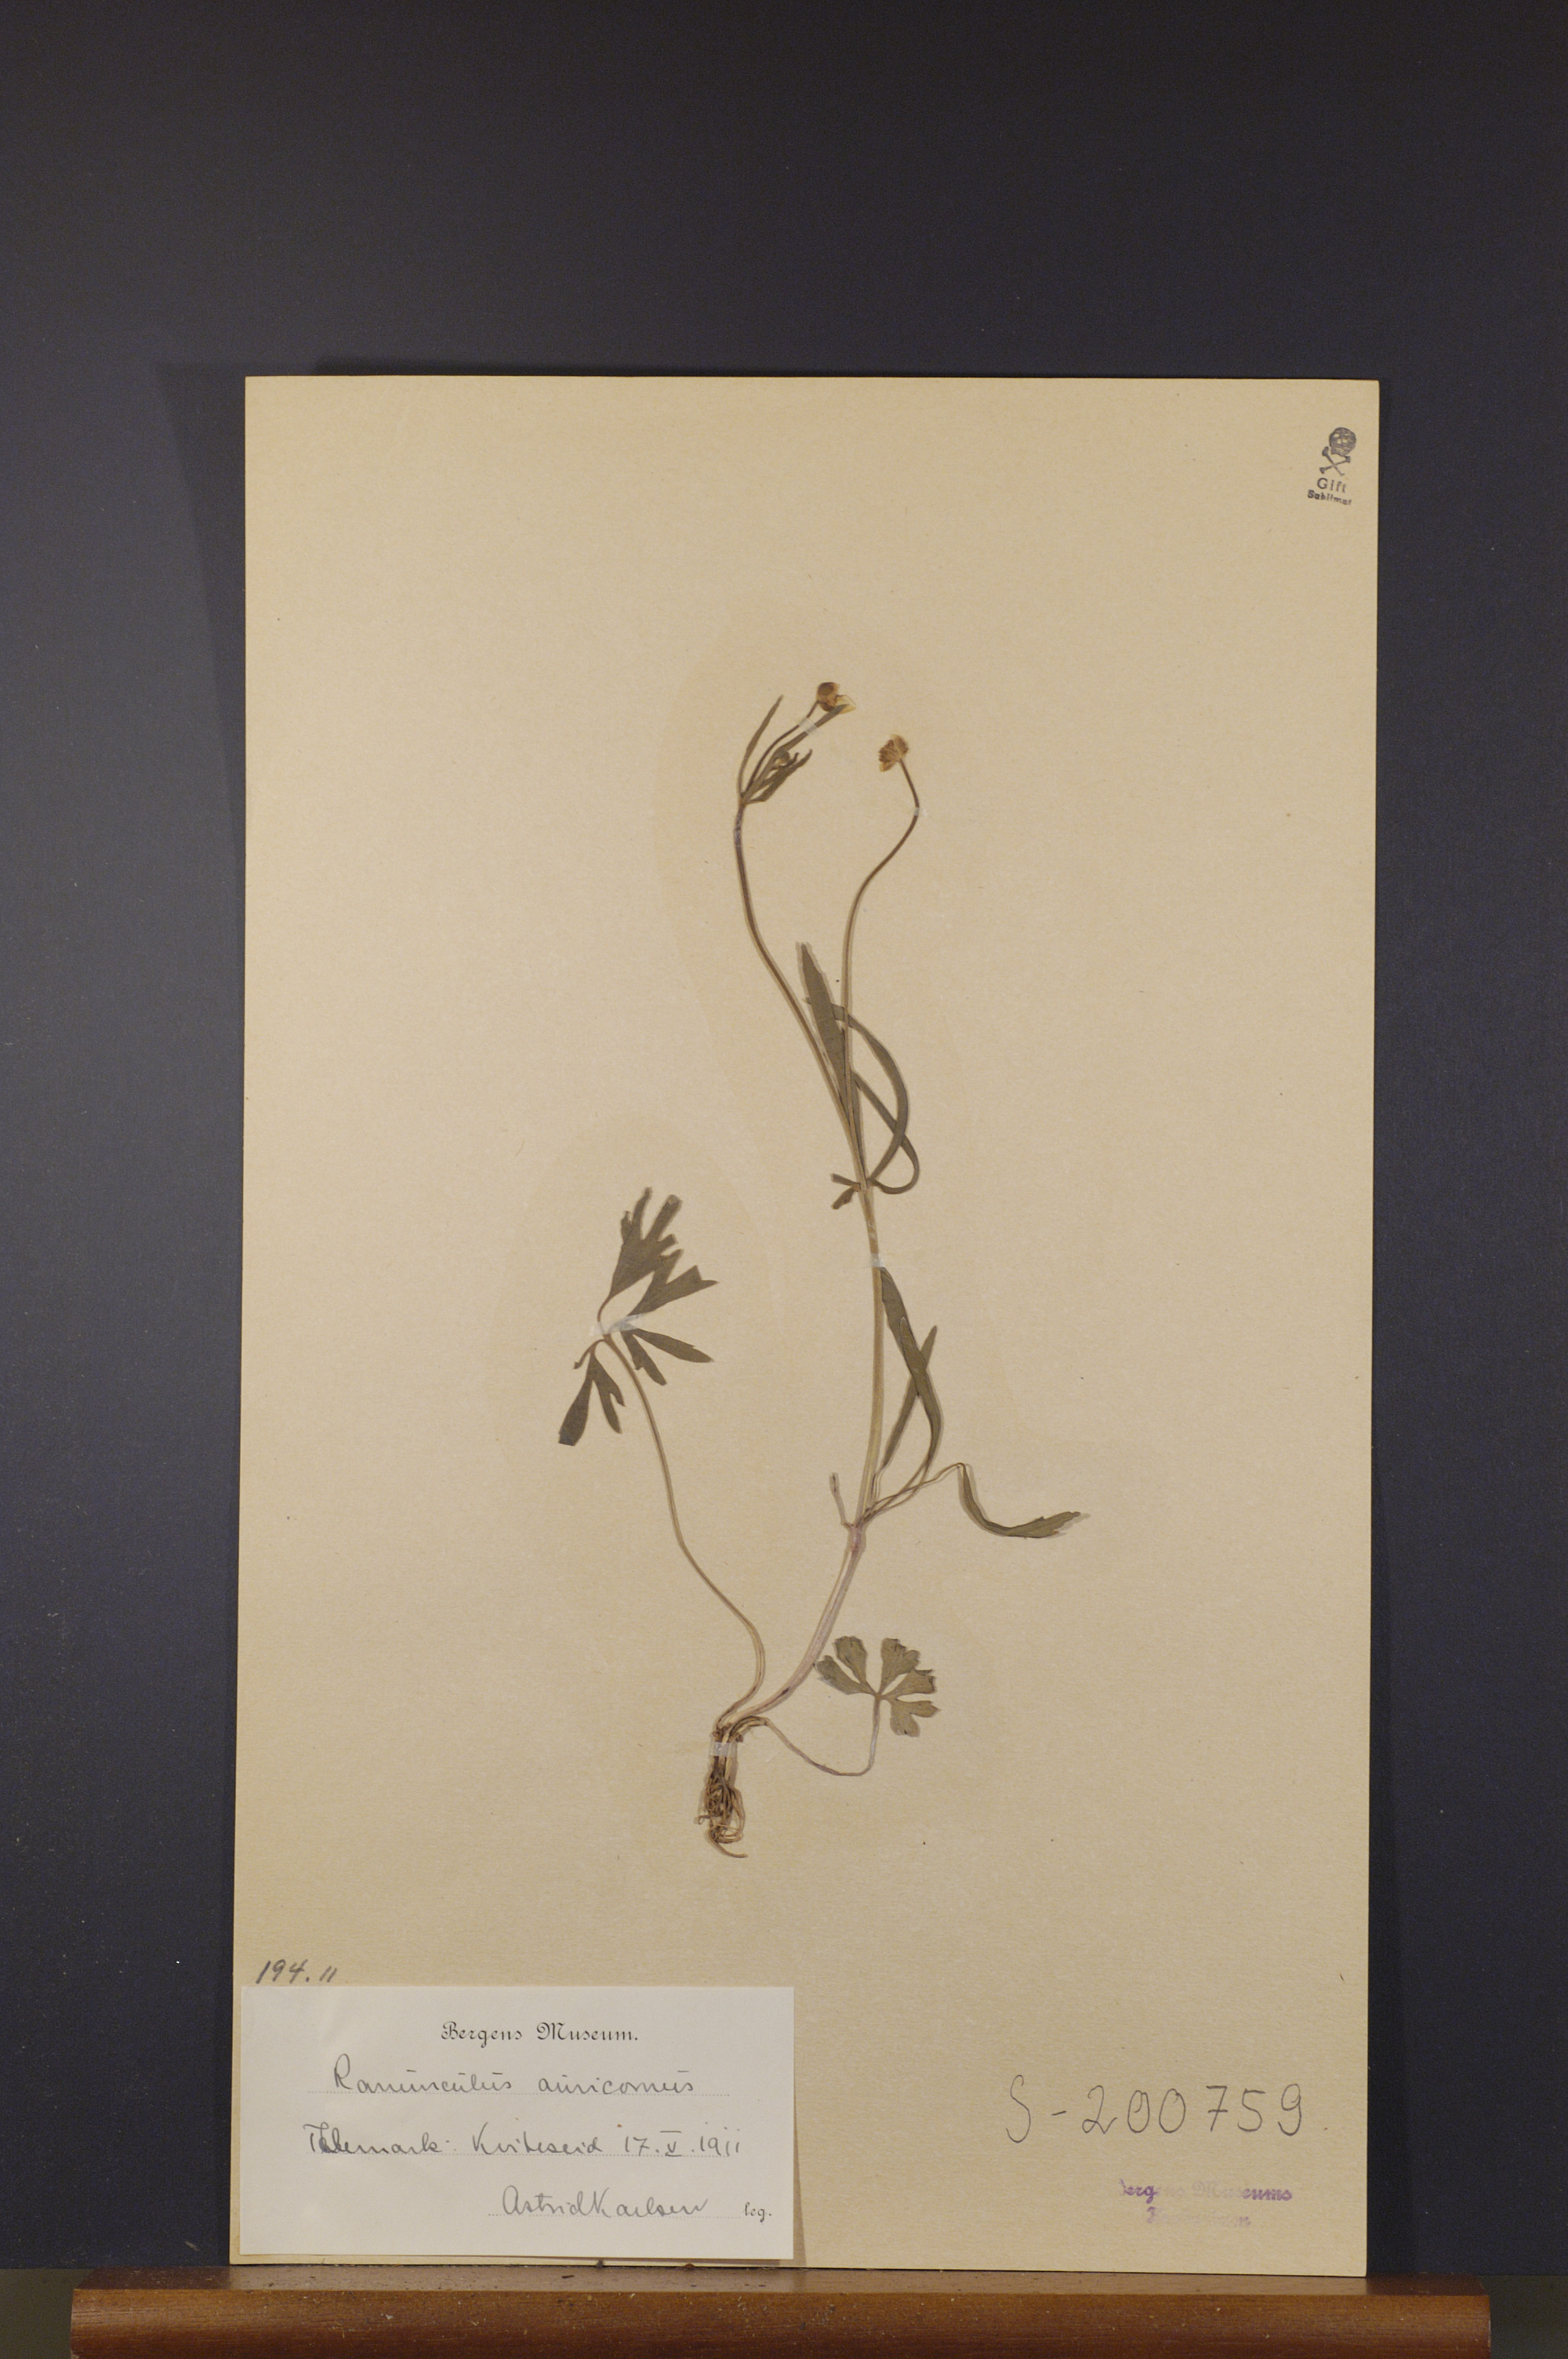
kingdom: Plantae
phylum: Tracheophyta
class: Magnoliopsida
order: Ranunculales
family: Ranunculaceae
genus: Ranunculus
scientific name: Ranunculus auricomus
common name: Goldilocks buttercup
